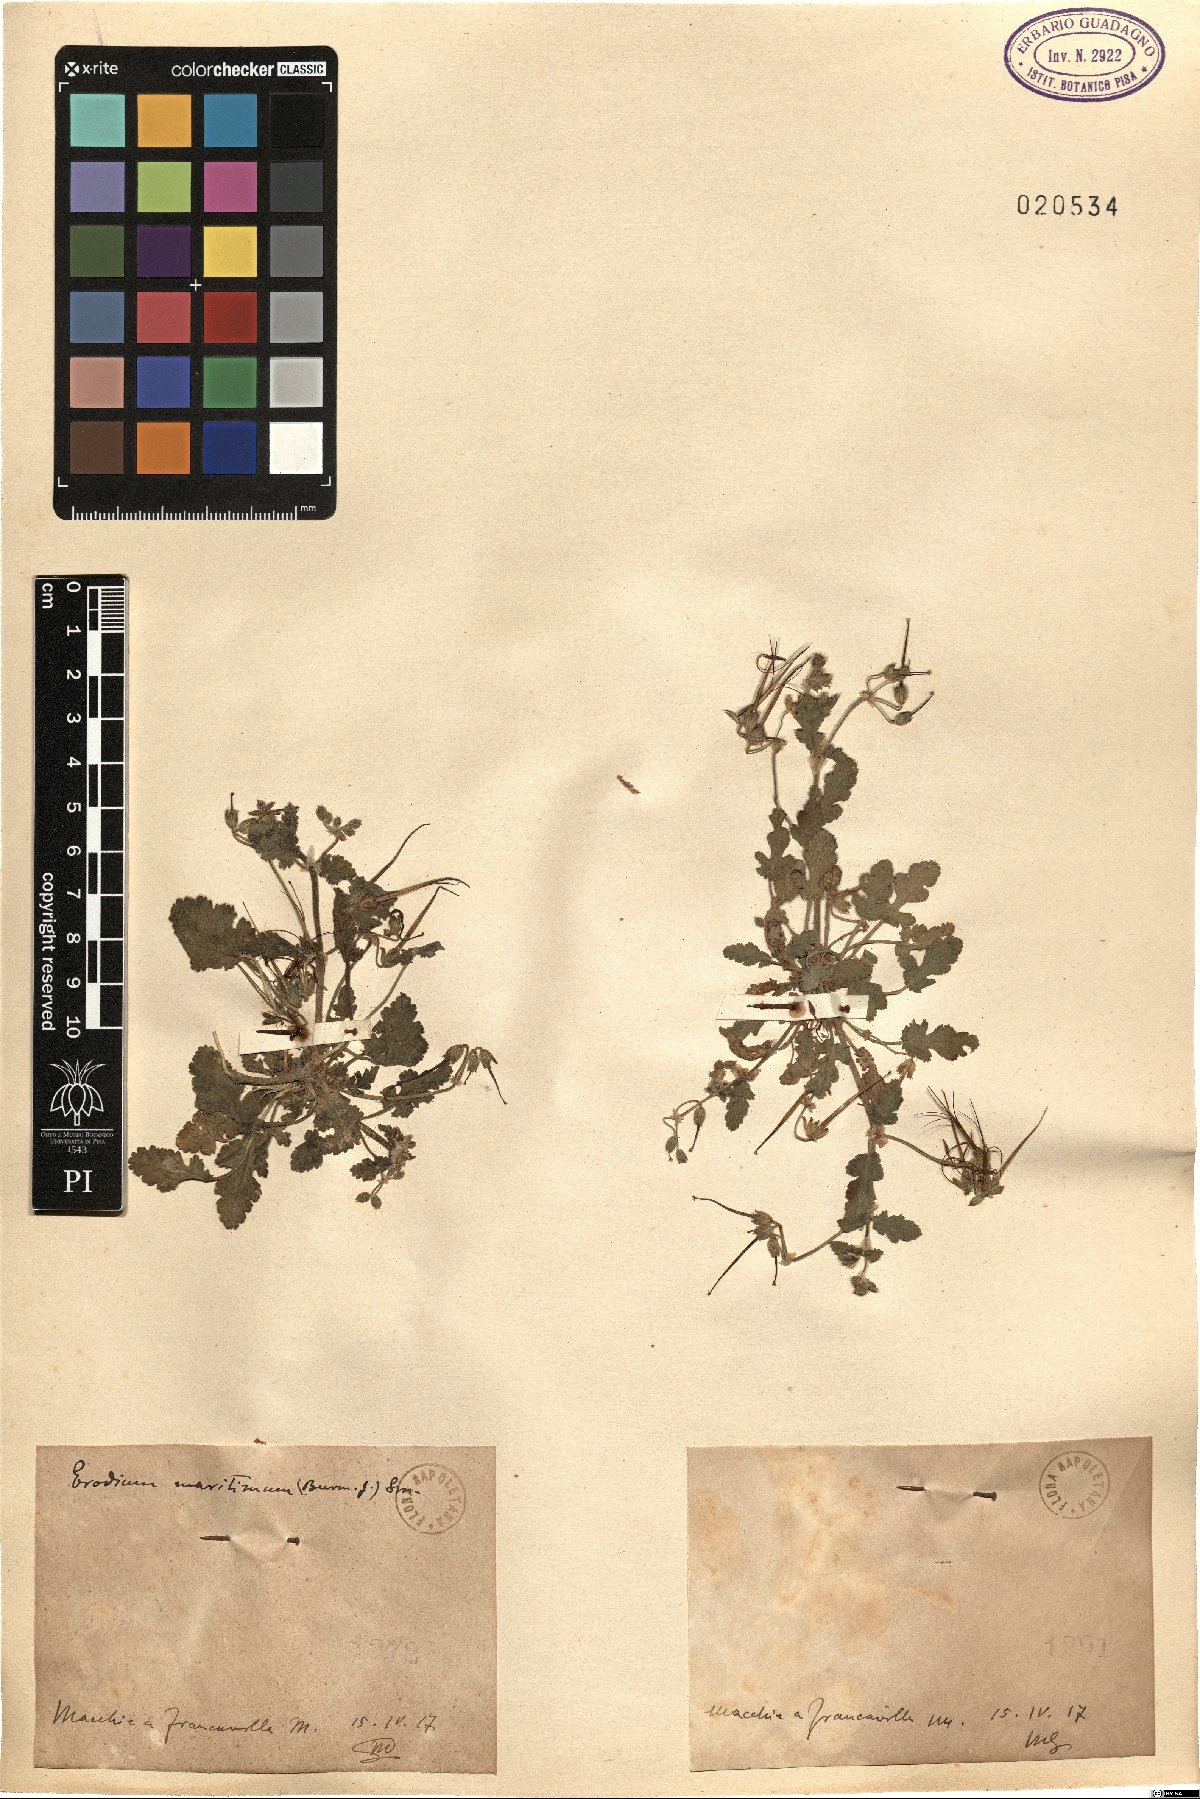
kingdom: Plantae
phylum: Tracheophyta
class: Magnoliopsida
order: Geraniales
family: Geraniaceae
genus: Erodium
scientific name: Erodium
